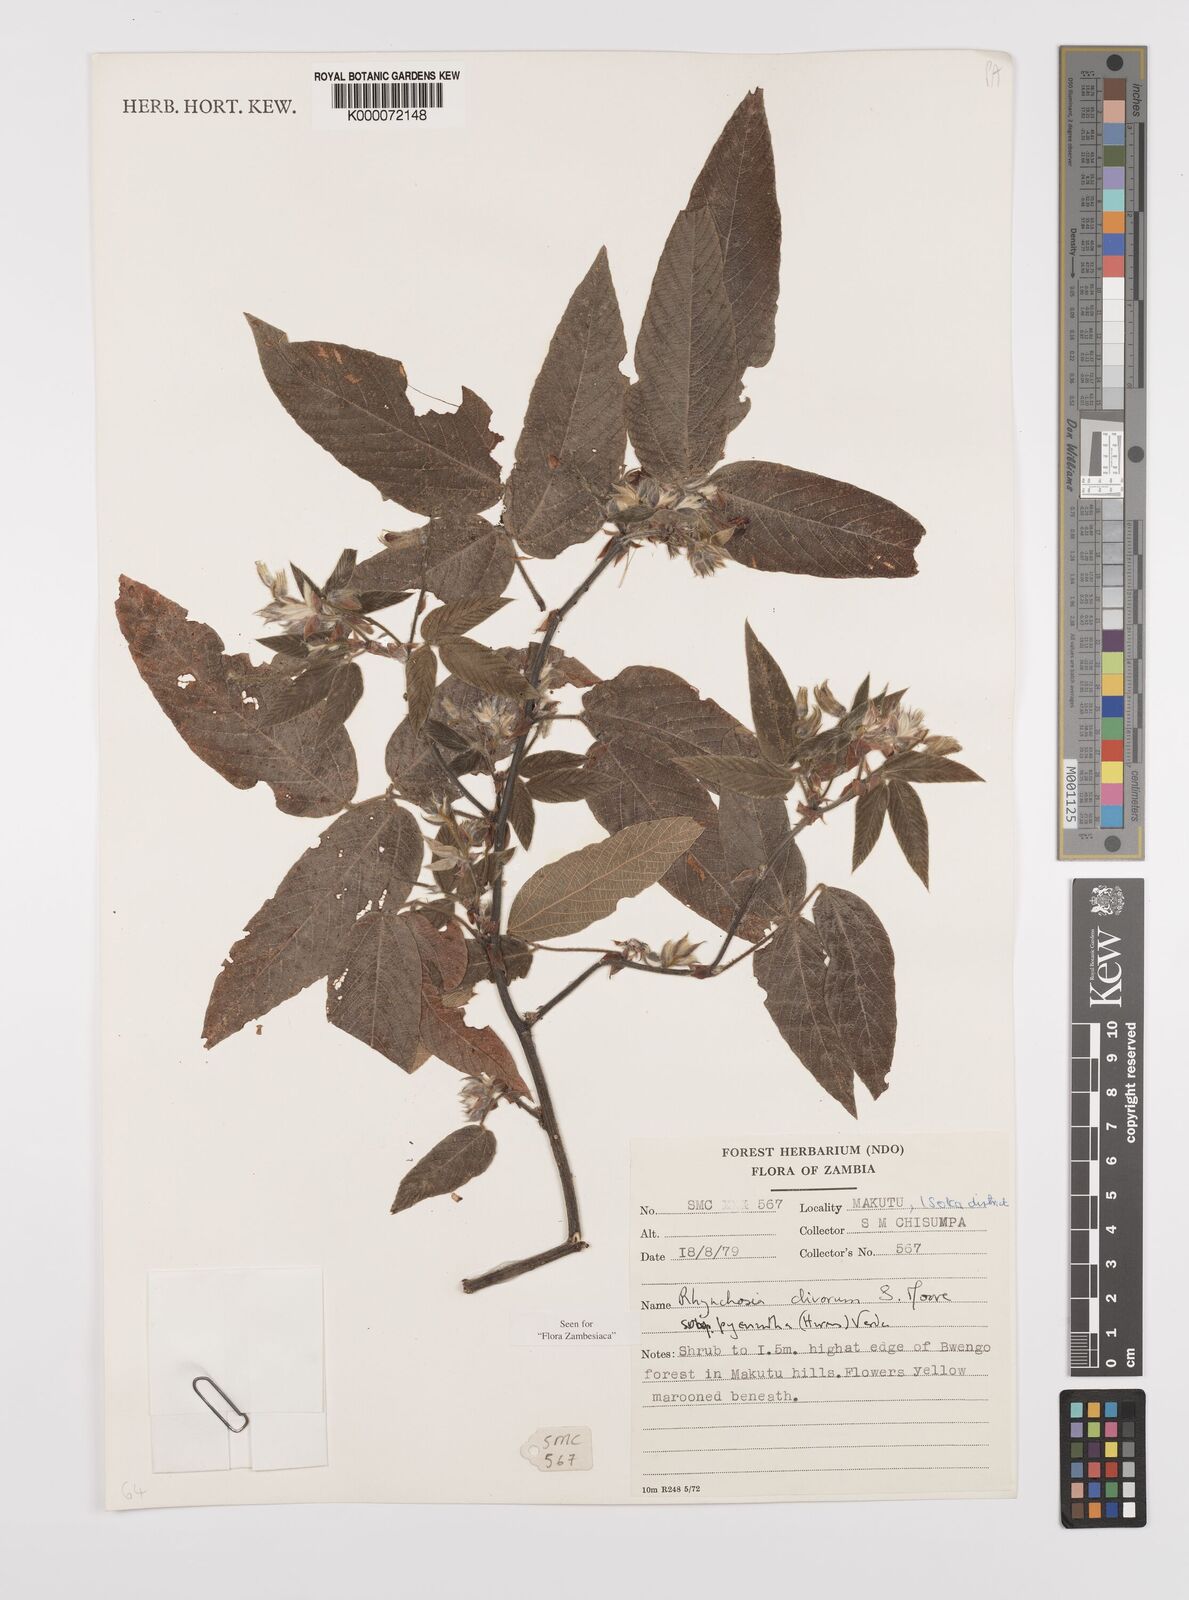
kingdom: Plantae
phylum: Tracheophyta
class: Magnoliopsida
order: Fabales
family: Fabaceae
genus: Rhynchosia
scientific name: Rhynchosia clivorum
